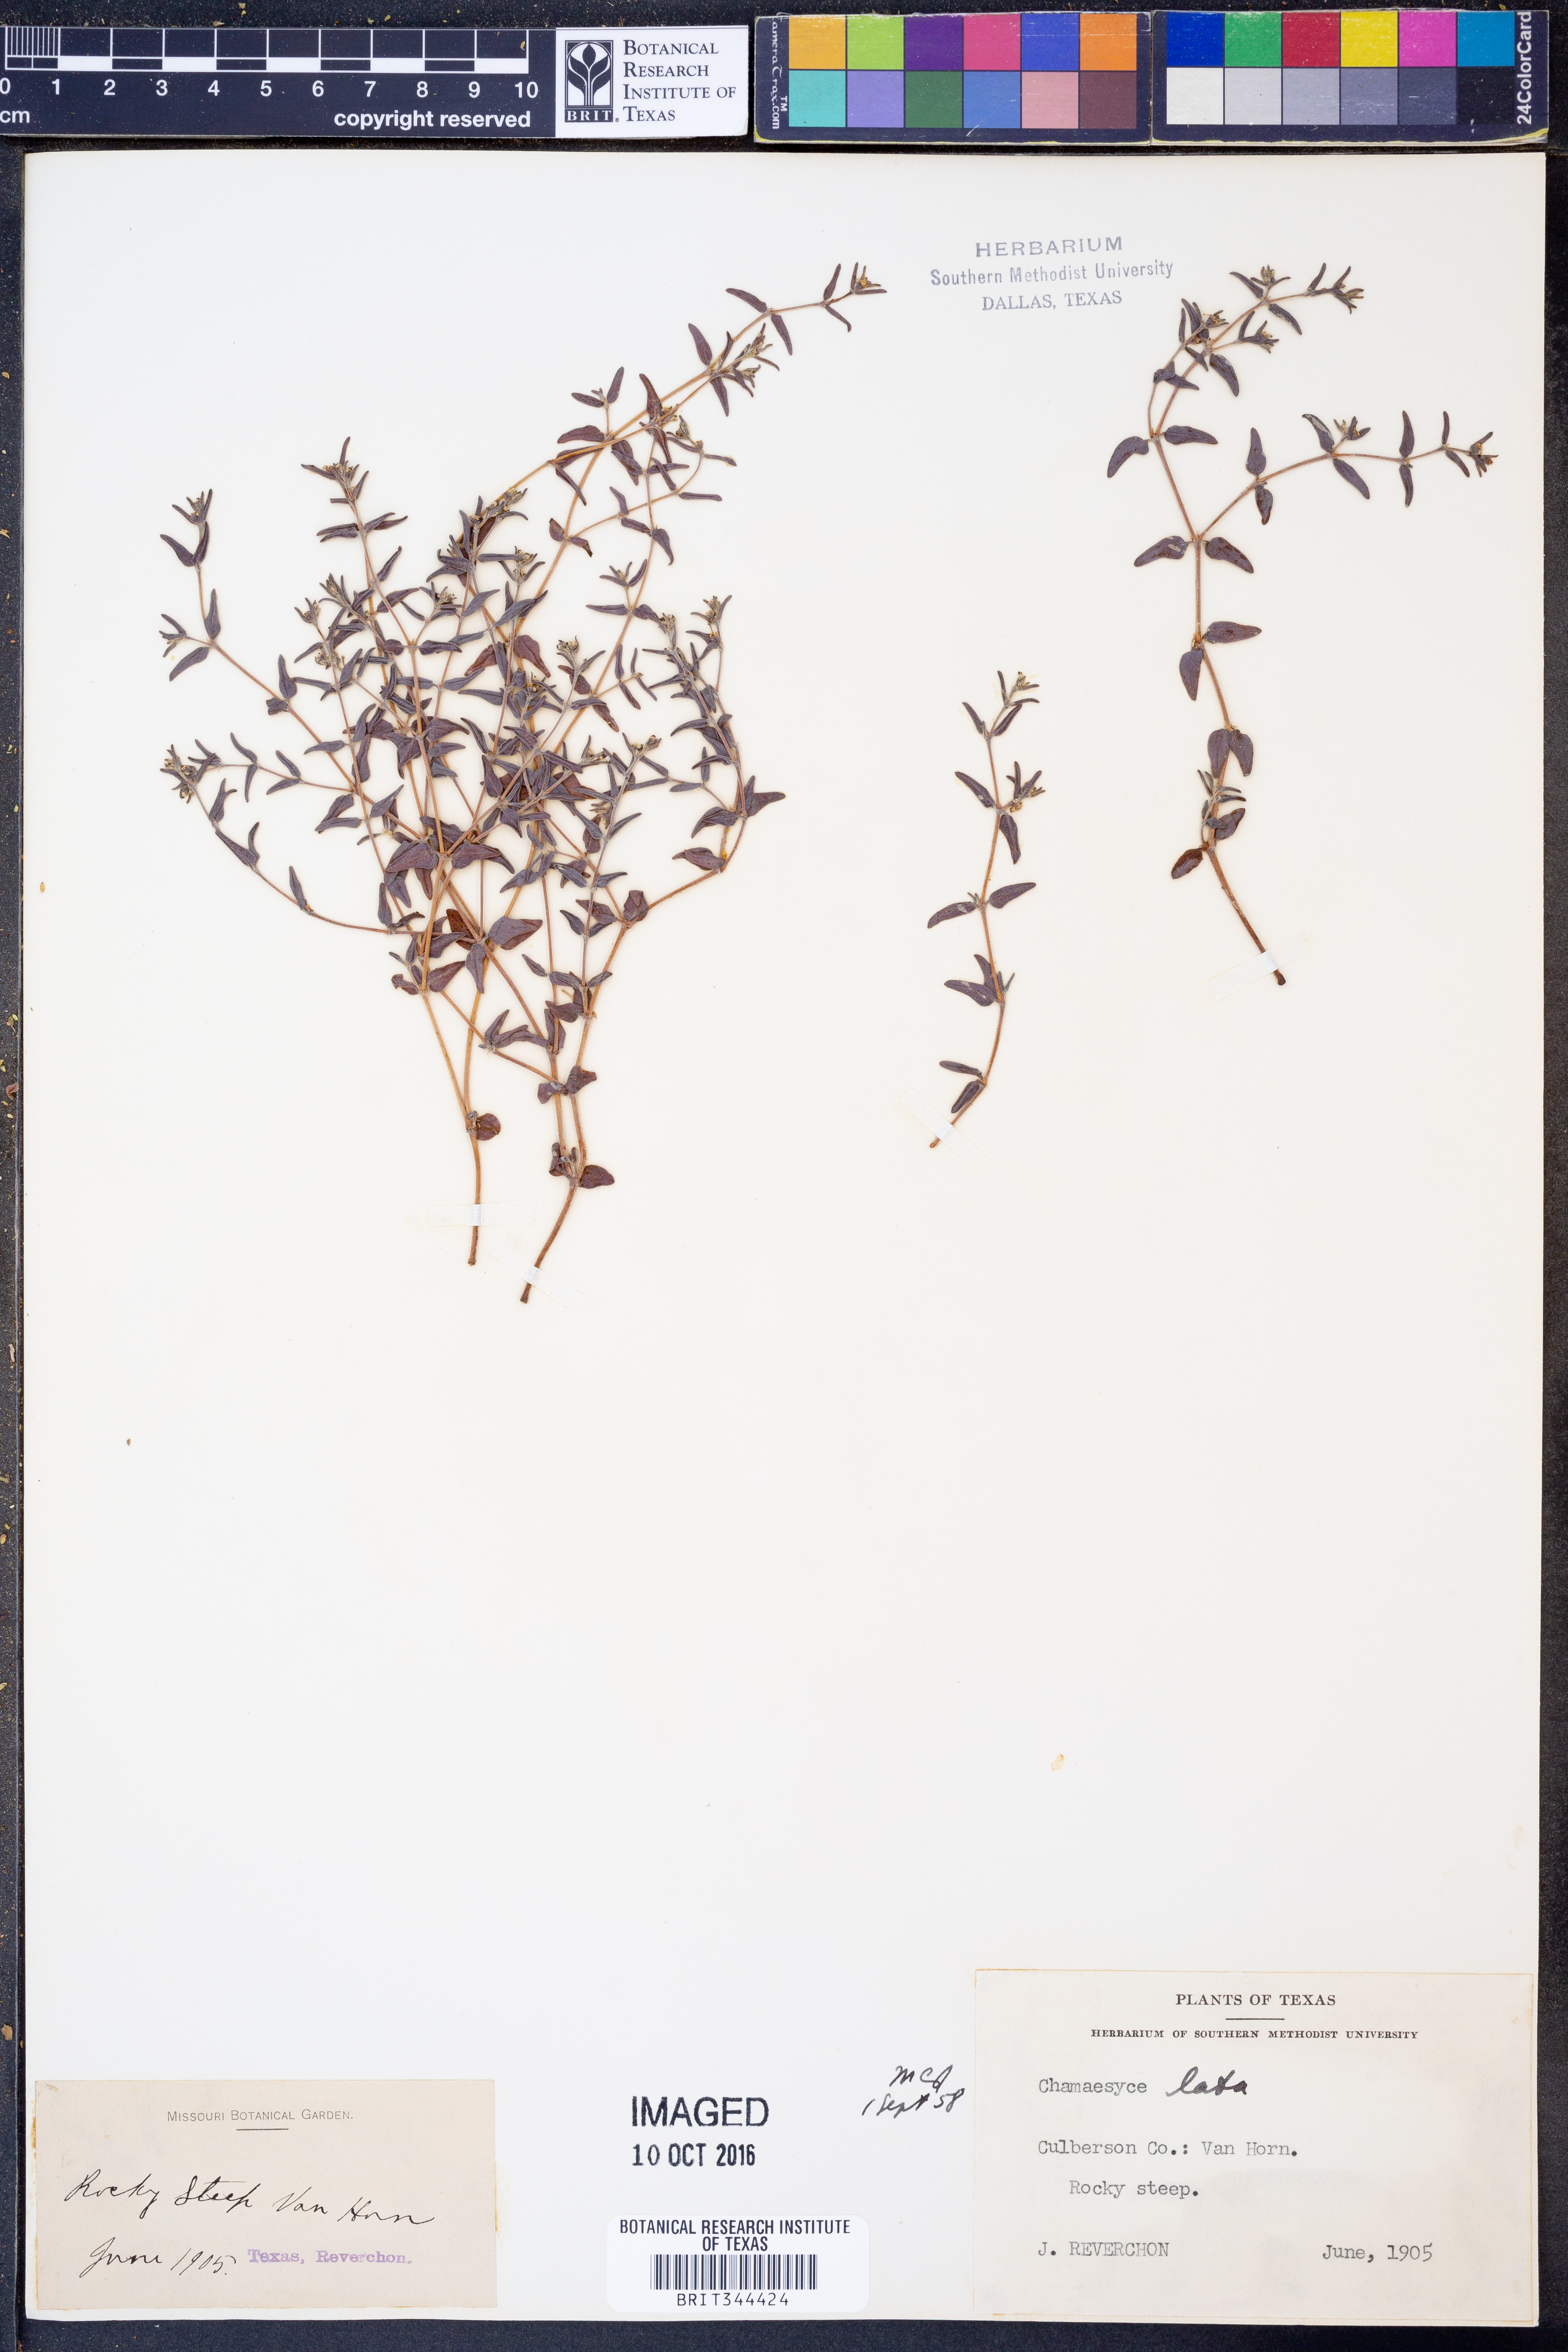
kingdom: Plantae
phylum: Tracheophyta
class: Magnoliopsida
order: Malpighiales
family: Euphorbiaceae
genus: Euphorbia
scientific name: Euphorbia lata
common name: Hoary euphorbia
